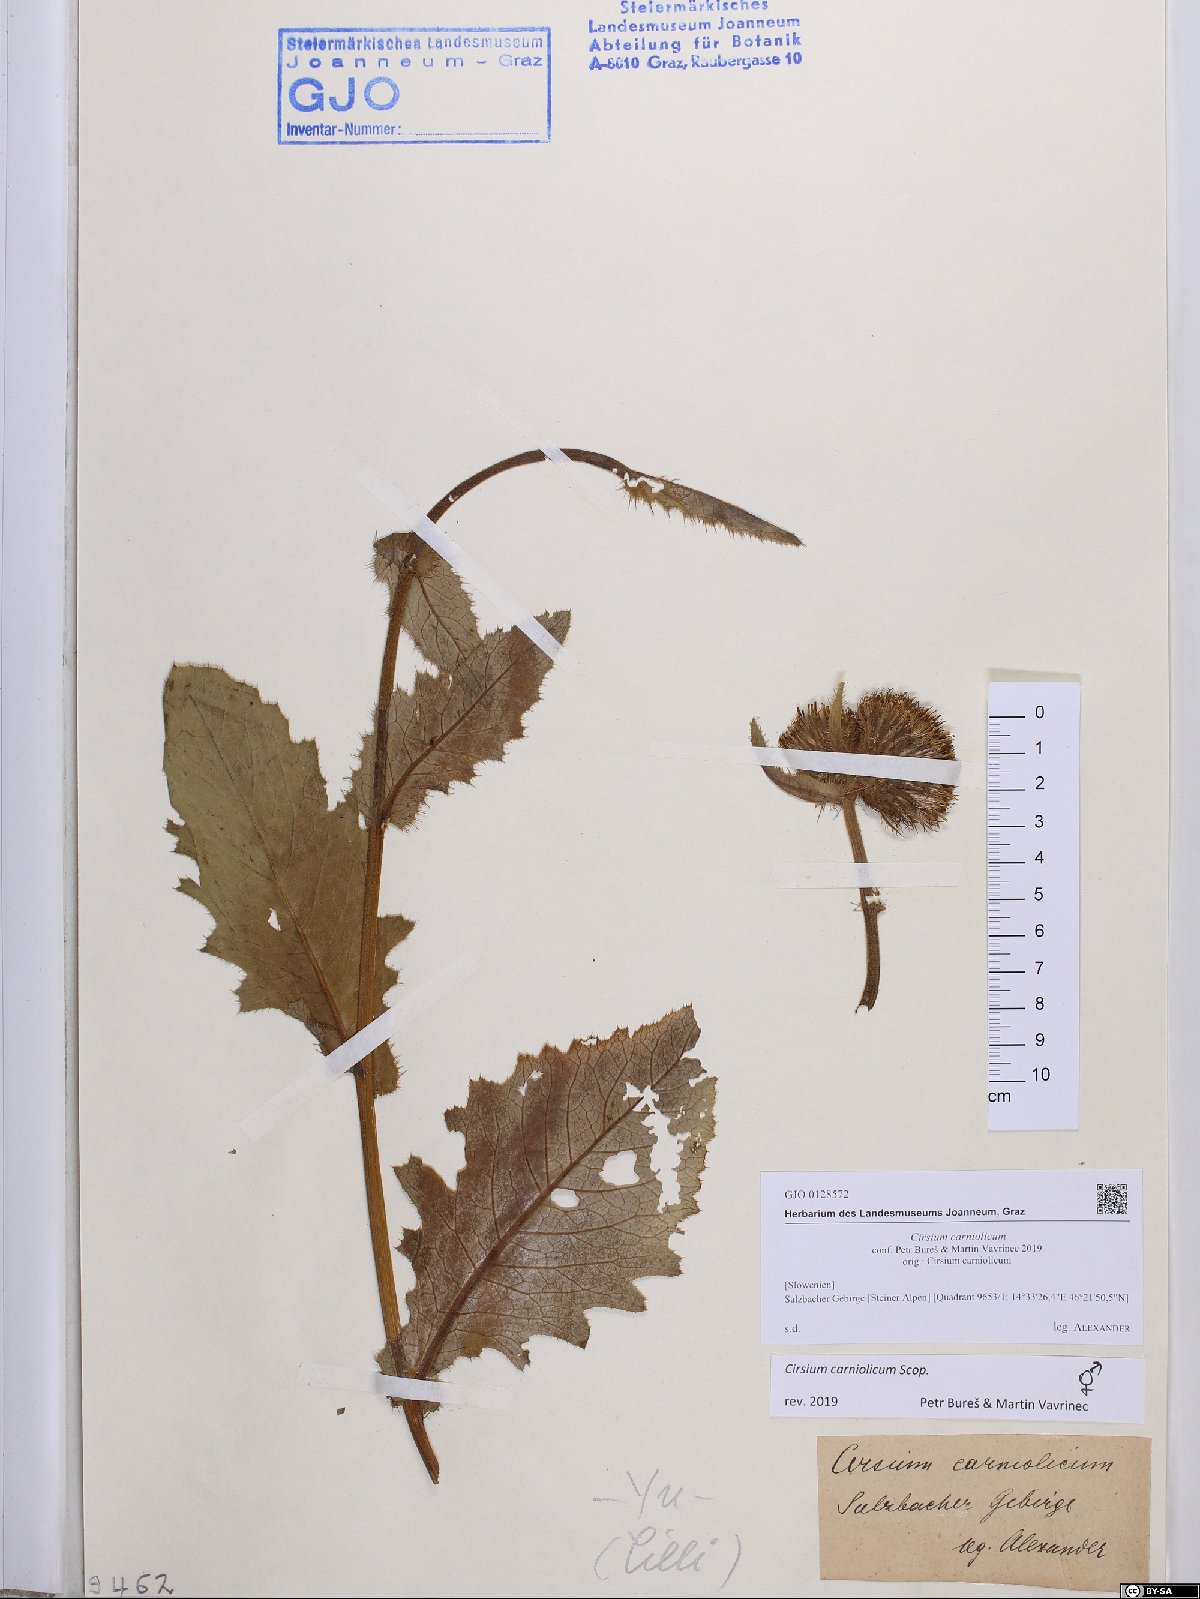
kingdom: Plantae
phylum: Tracheophyta
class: Magnoliopsida
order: Asterales
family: Asteraceae
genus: Cirsium
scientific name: Cirsium carniolicum
